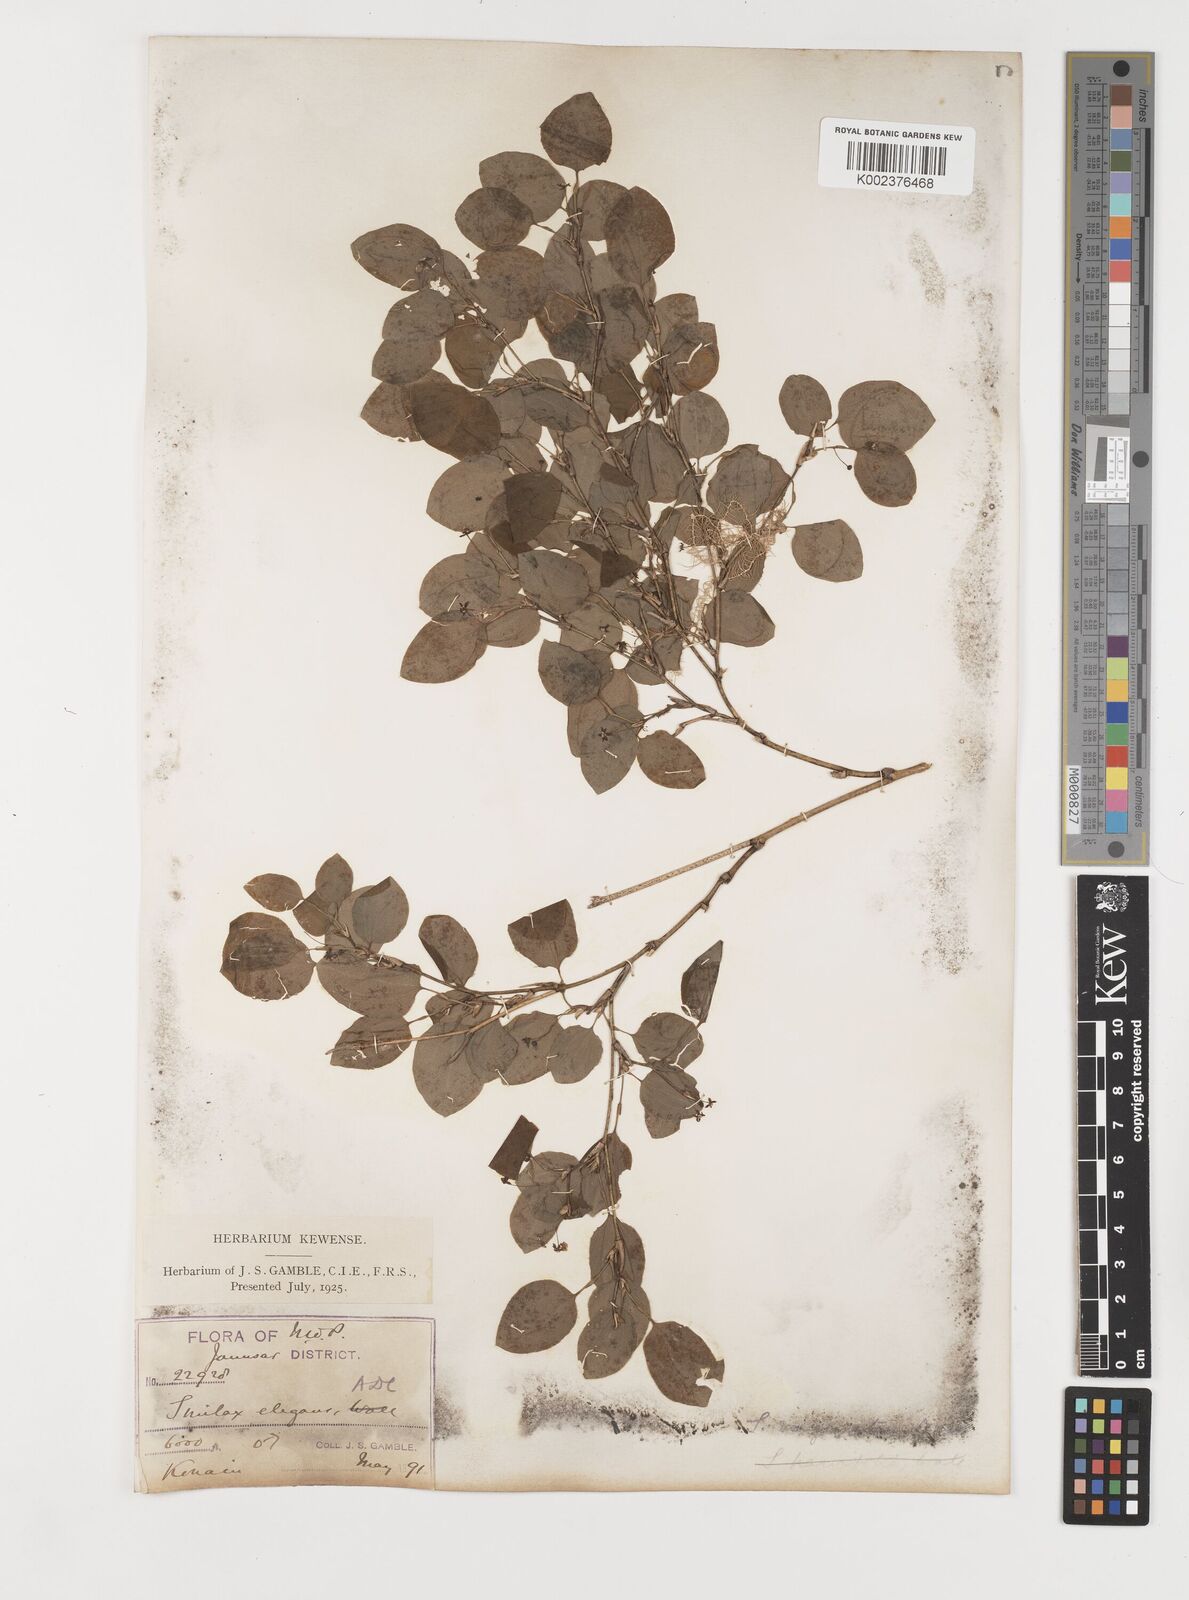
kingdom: Plantae
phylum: Tracheophyta
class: Liliopsida
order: Liliales
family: Smilacaceae
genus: Smilax
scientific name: Smilax vaginata
